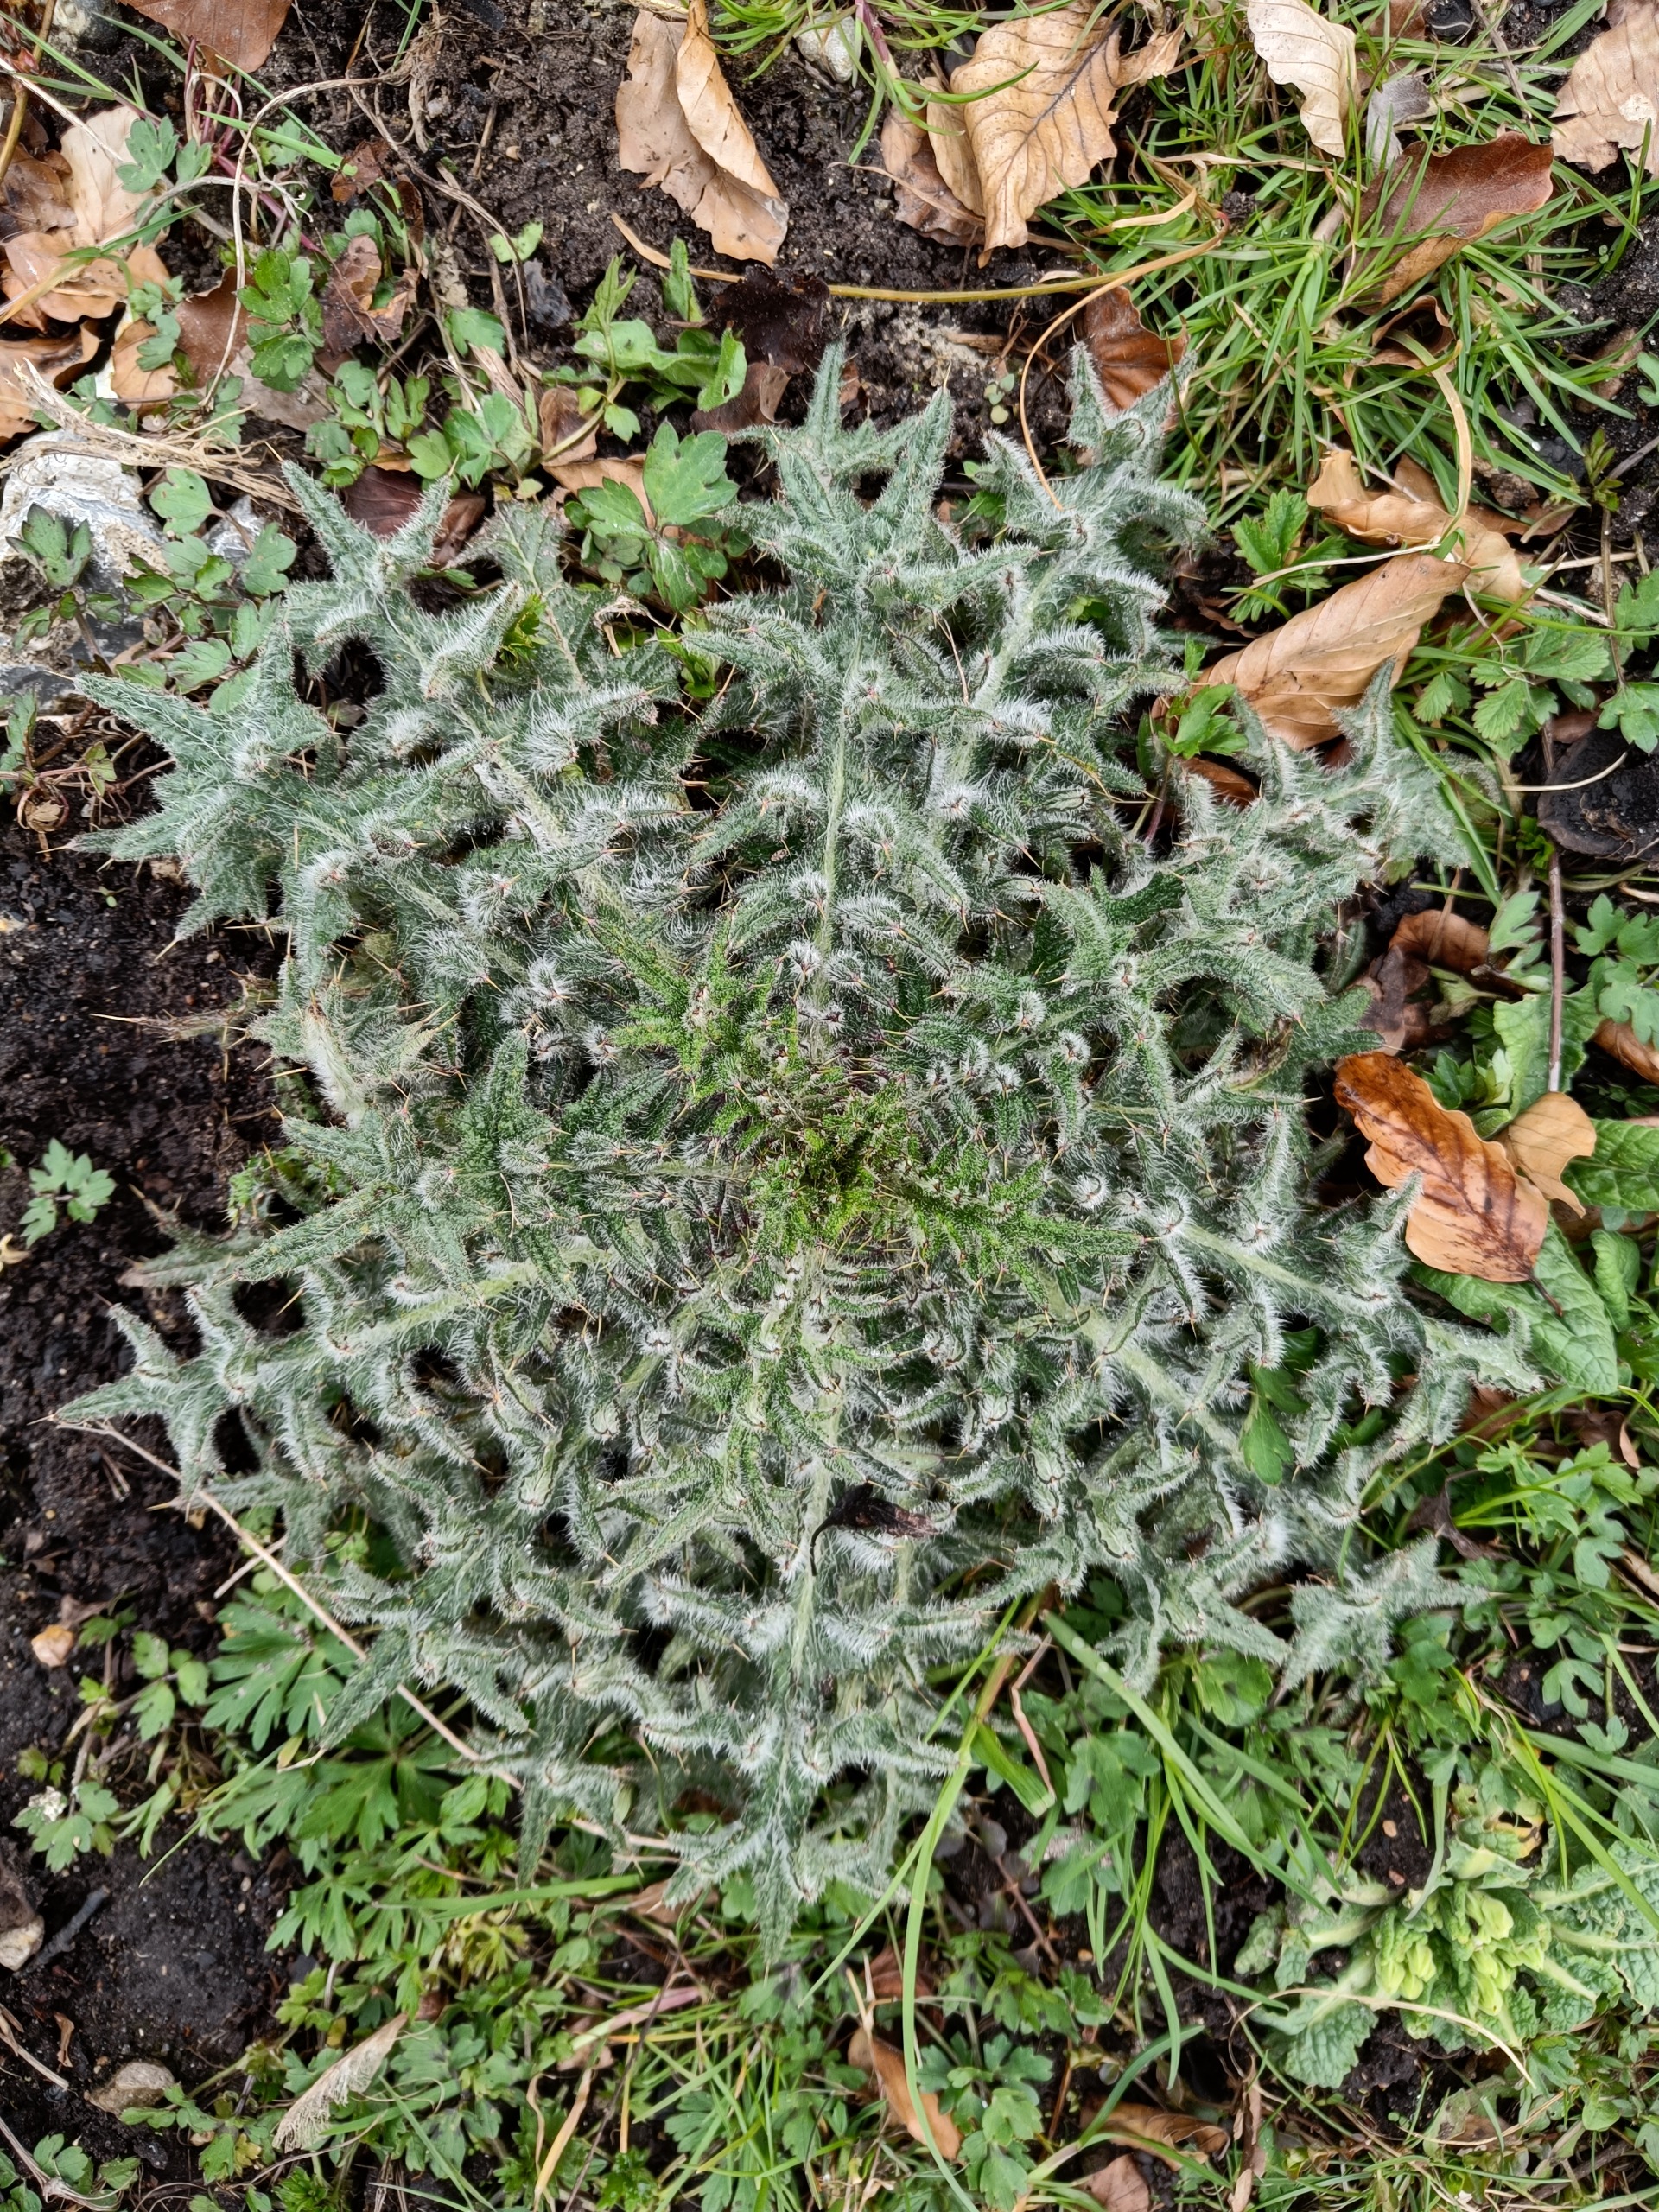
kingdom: Plantae
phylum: Tracheophyta
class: Magnoliopsida
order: Asterales
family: Asteraceae
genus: Cirsium
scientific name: Cirsium vulgare
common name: Horse-tidsel
